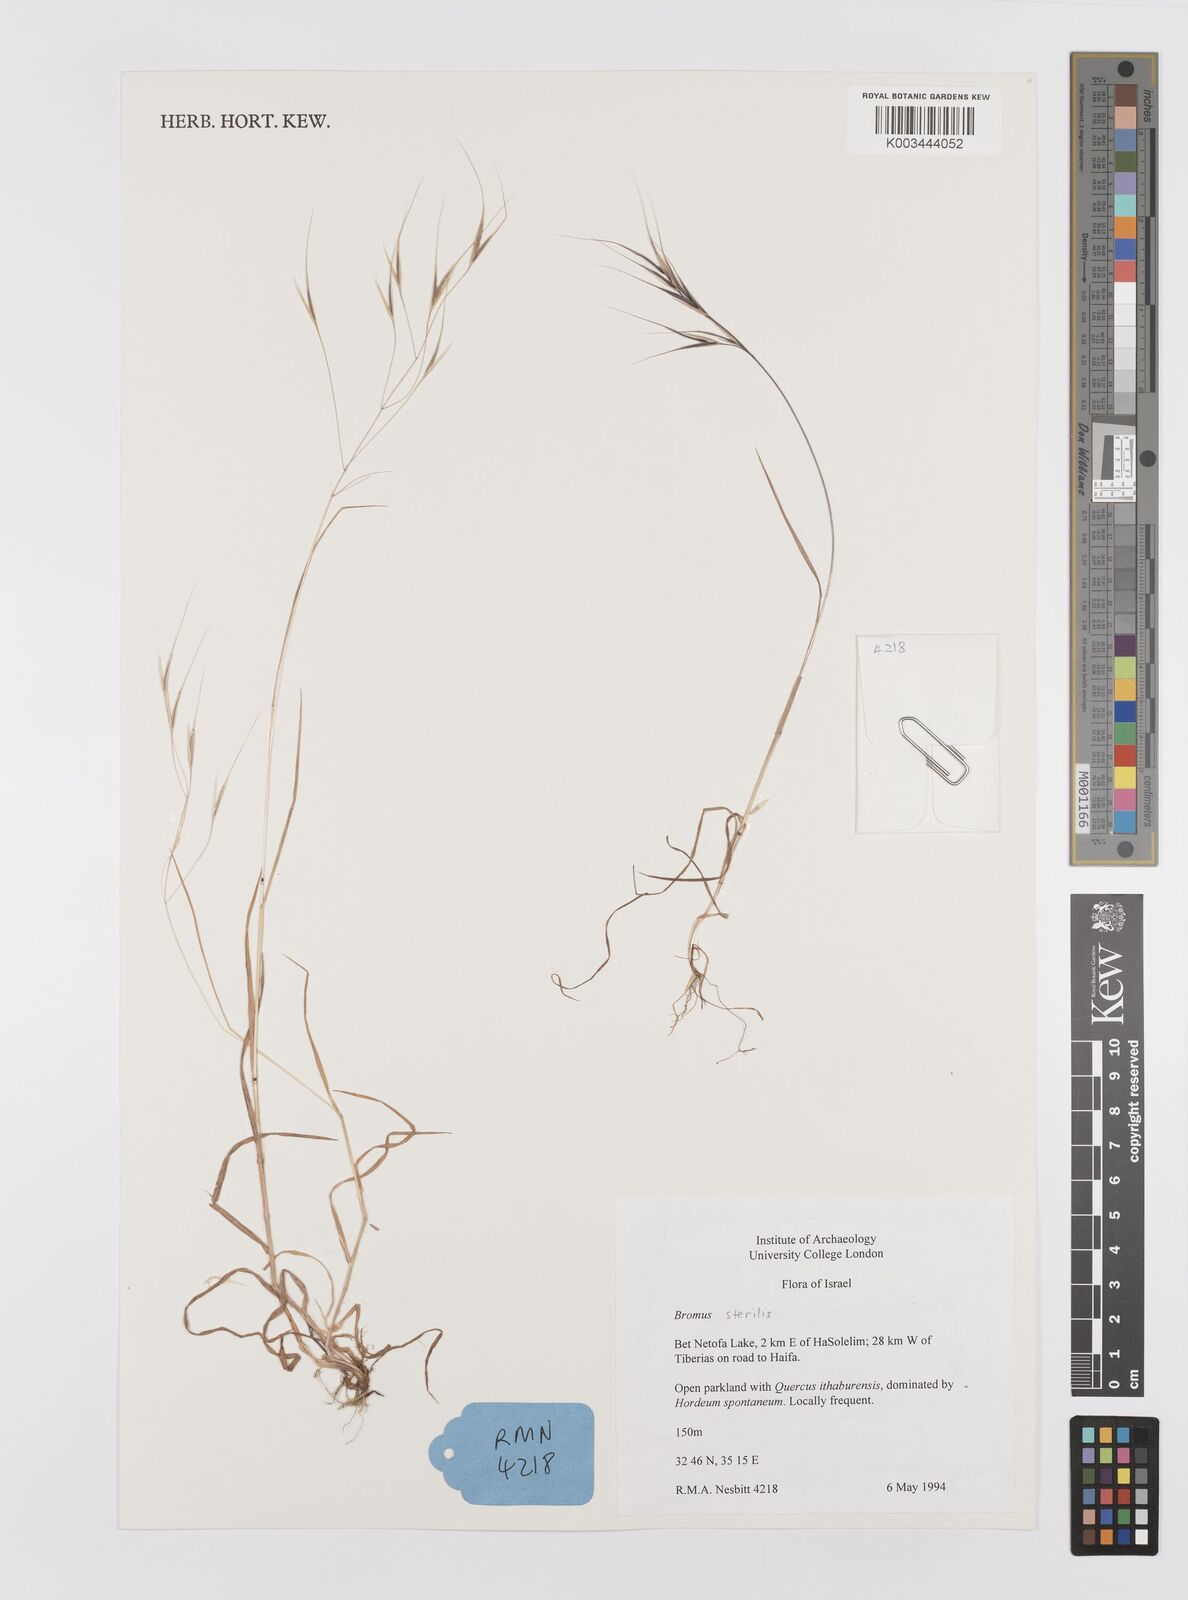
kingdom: Plantae
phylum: Tracheophyta
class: Liliopsida
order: Poales
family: Poaceae
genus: Bromus
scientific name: Bromus sterilis
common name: Poverty brome
